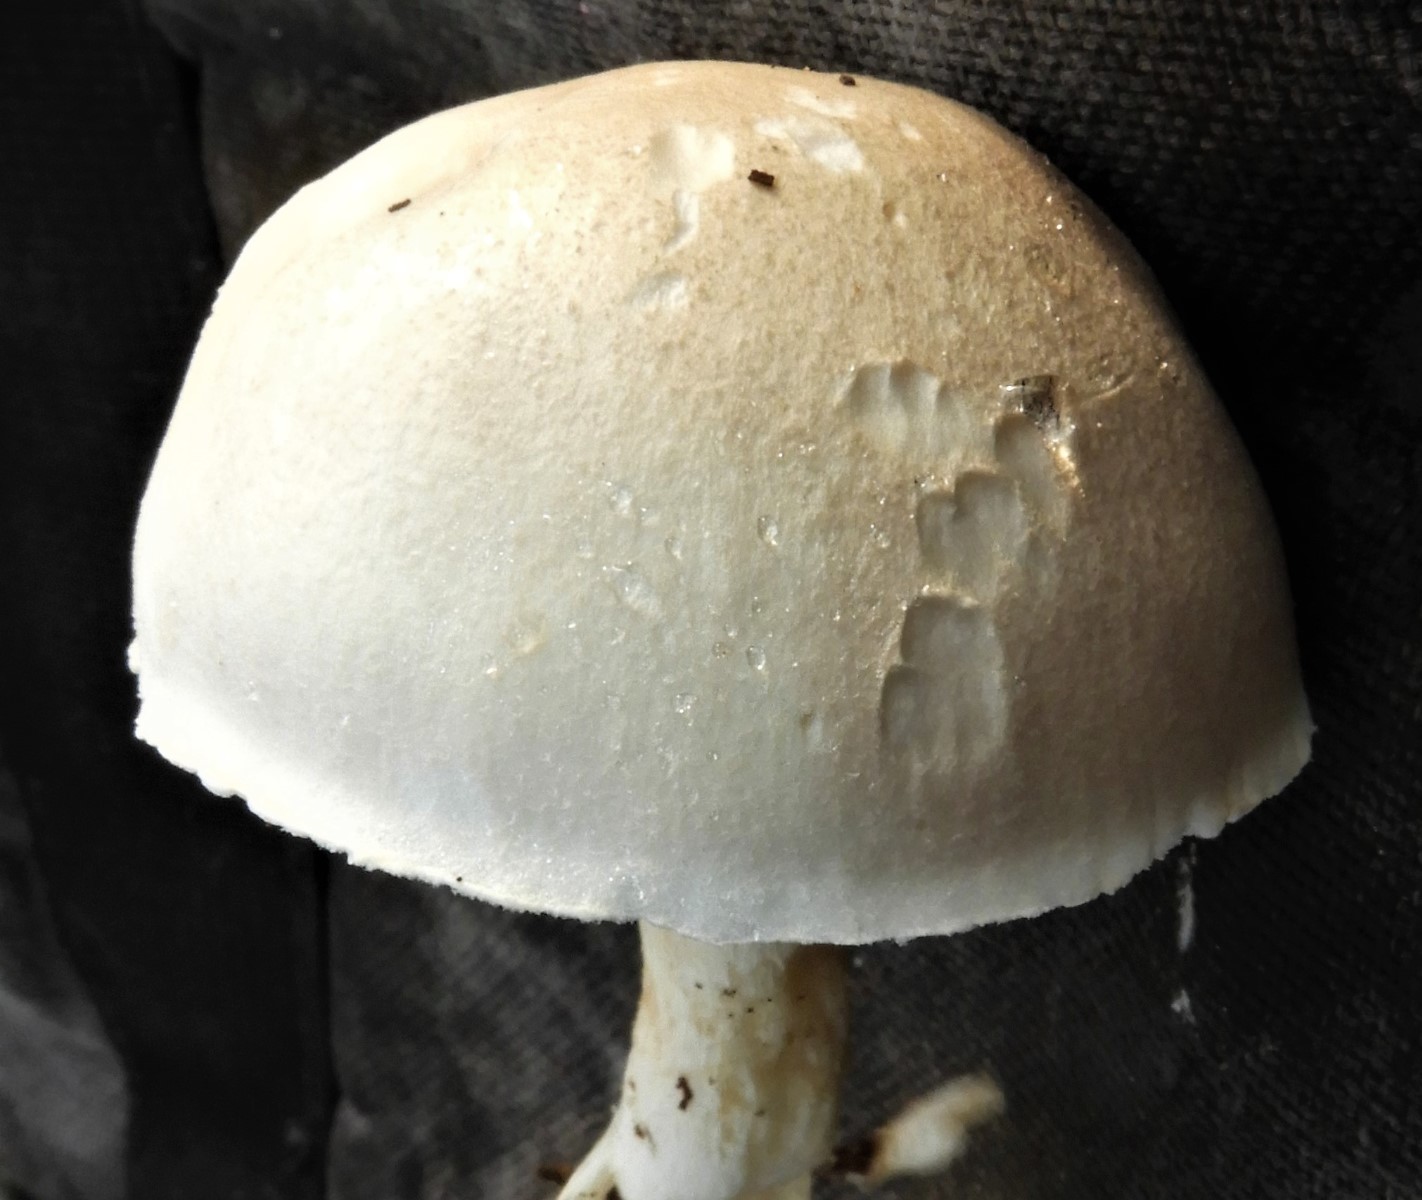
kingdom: Fungi
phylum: Basidiomycota
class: Agaricomycetes
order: Agaricales
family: Agaricaceae
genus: Leucoagaricus
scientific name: Leucoagaricus leucothites
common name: rosabladet silkehat
